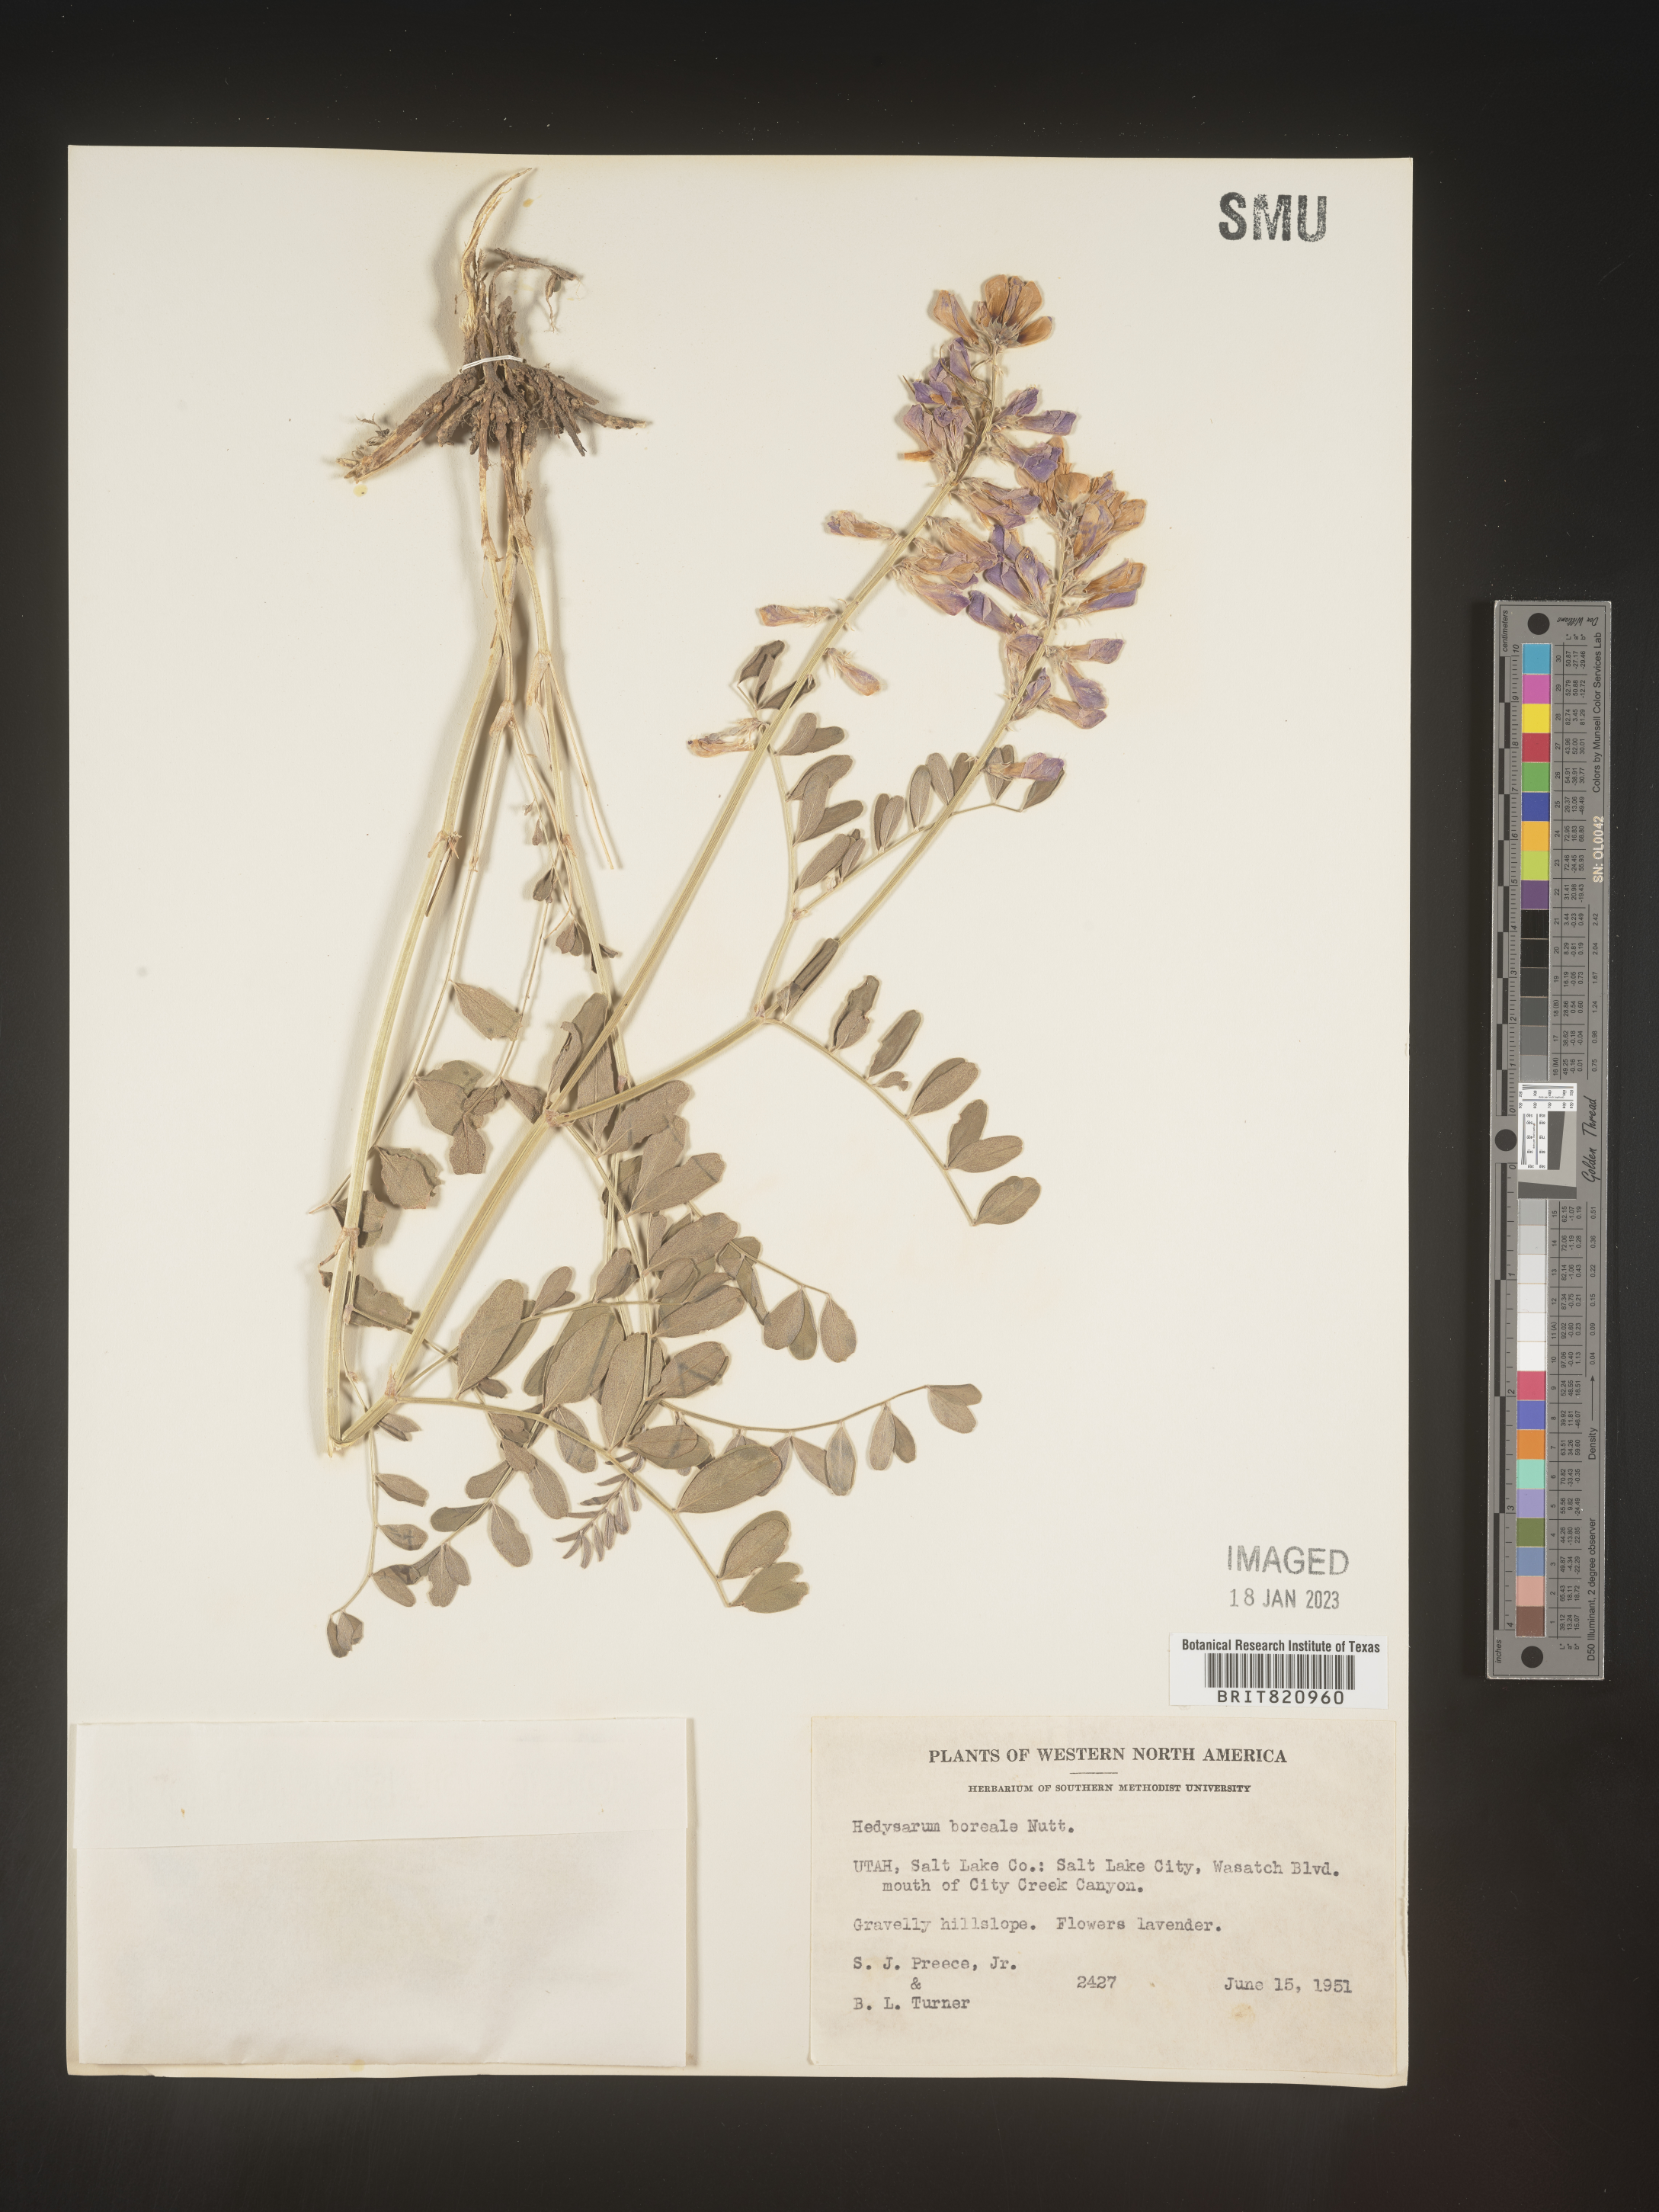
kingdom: Plantae
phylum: Tracheophyta
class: Magnoliopsida
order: Fabales
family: Fabaceae
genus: Hedysarum
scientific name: Hedysarum boreale
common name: Northern sweet-vetch
